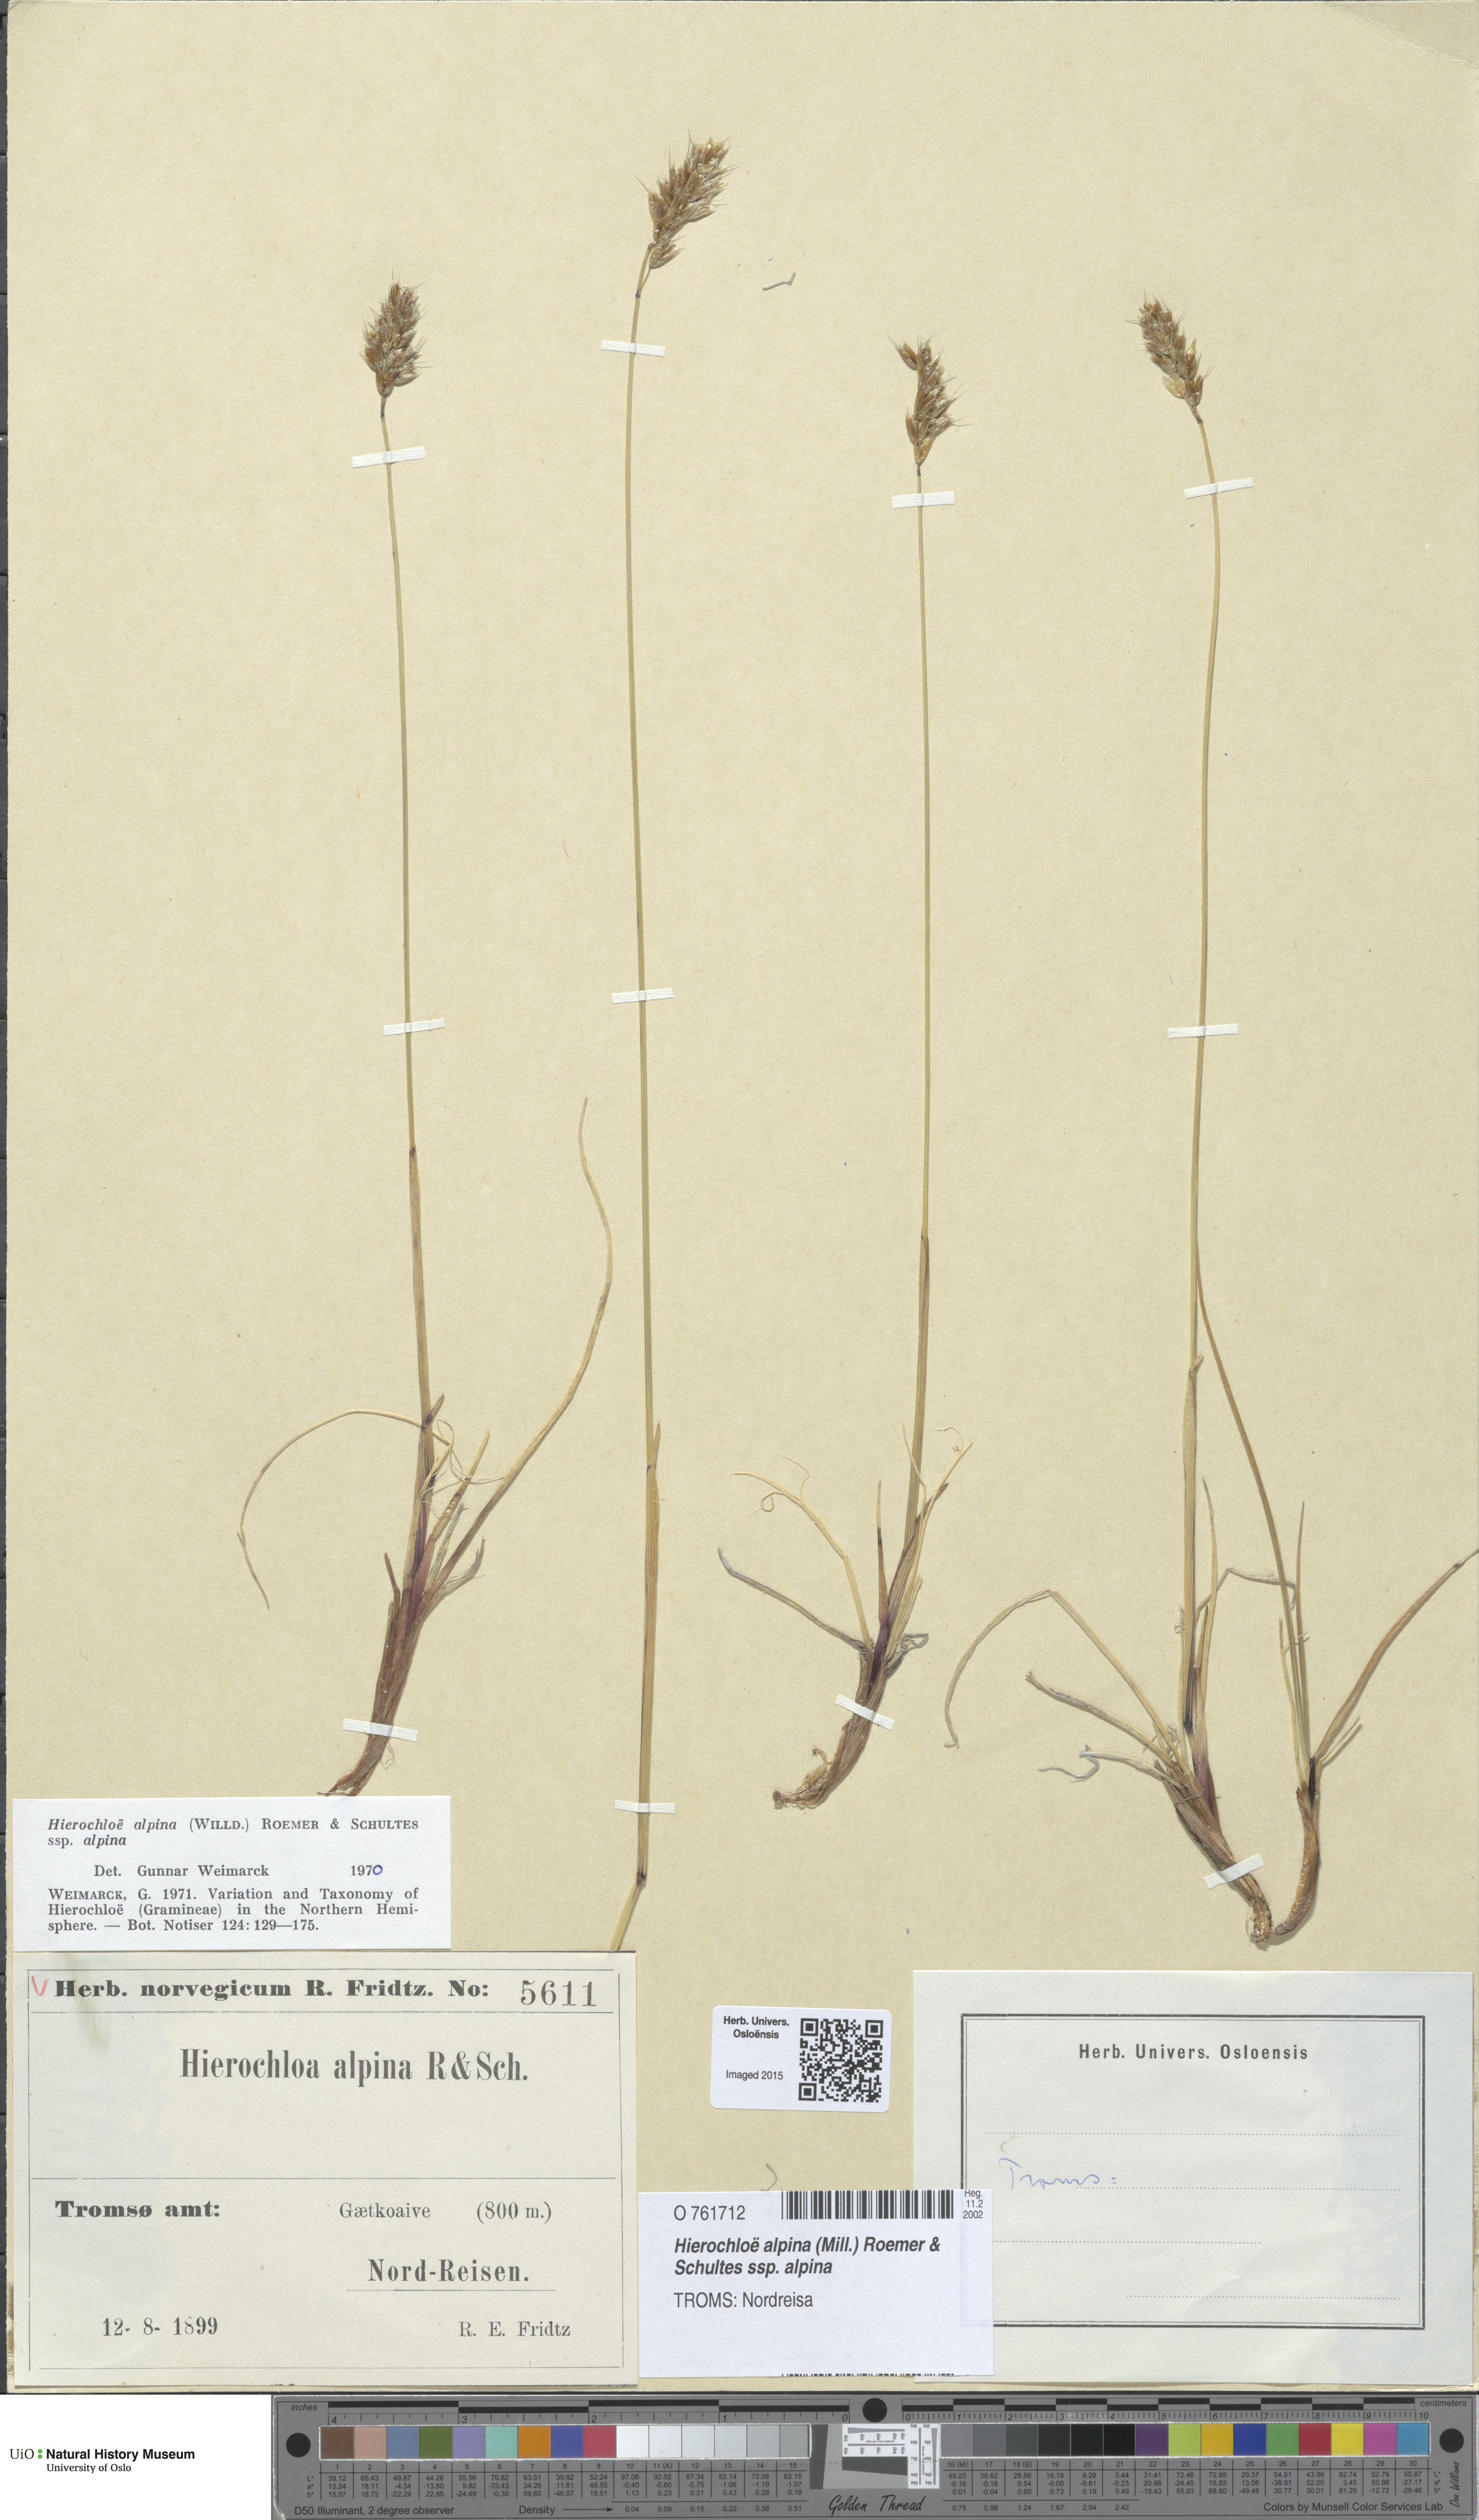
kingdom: Plantae
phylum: Tracheophyta
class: Liliopsida
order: Poales
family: Poaceae
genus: Anthoxanthum
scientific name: Anthoxanthum monticola
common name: Alpine sweetgrass
